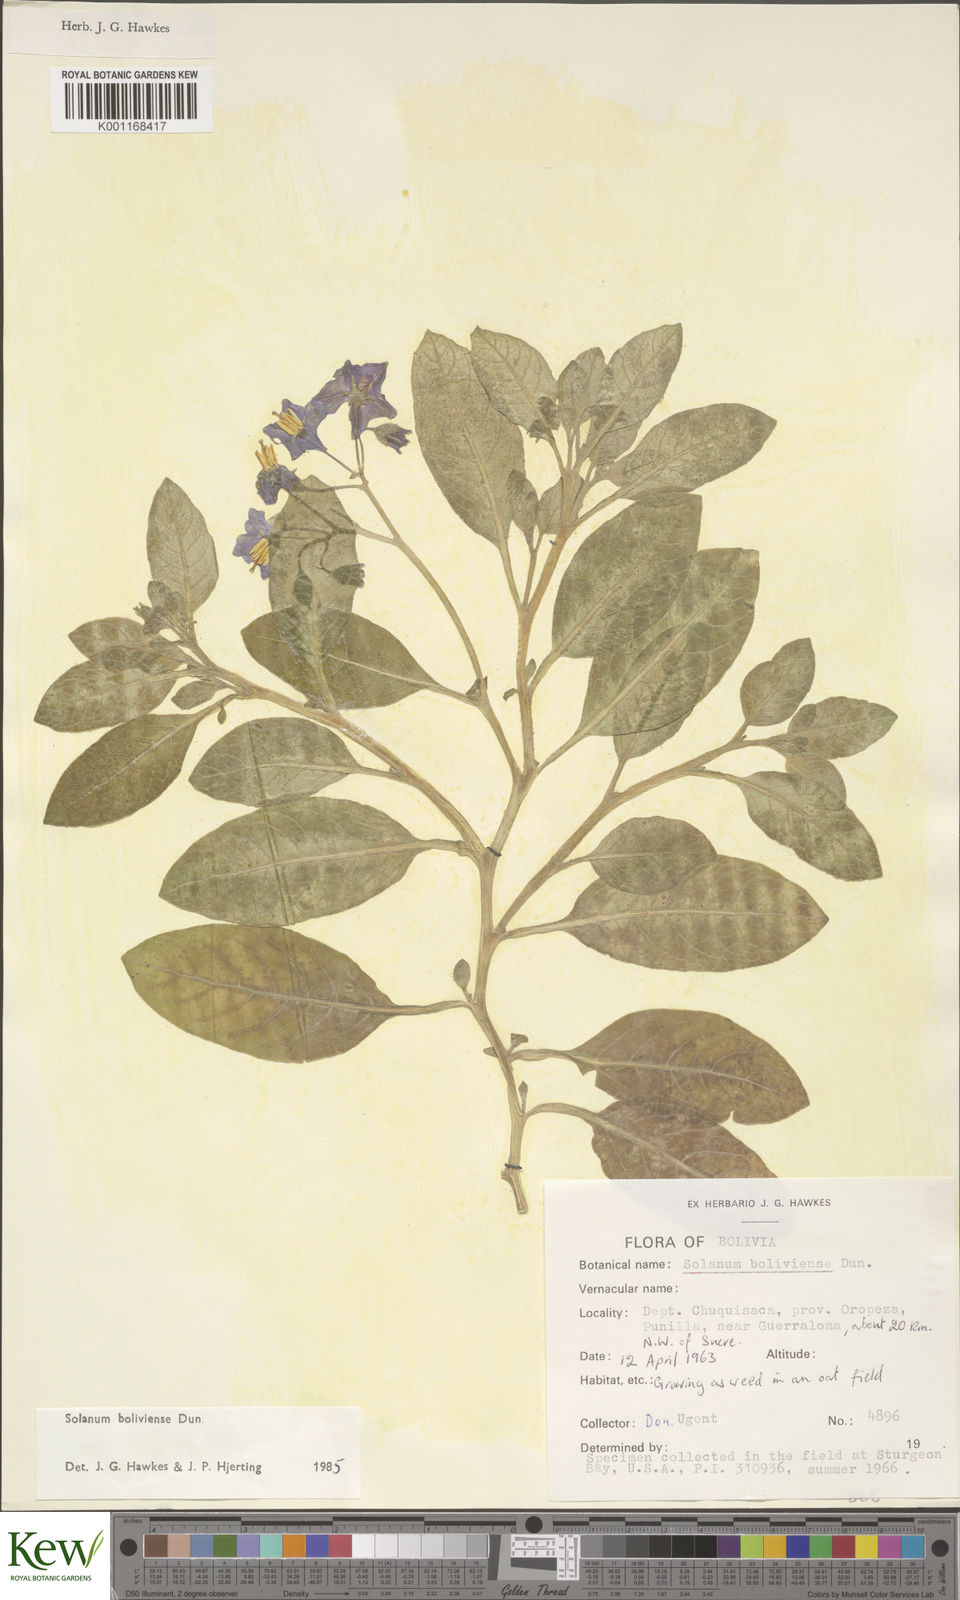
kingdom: Plantae
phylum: Tracheophyta
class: Magnoliopsida
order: Solanales
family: Solanaceae
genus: Solanum
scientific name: Solanum boliviense
